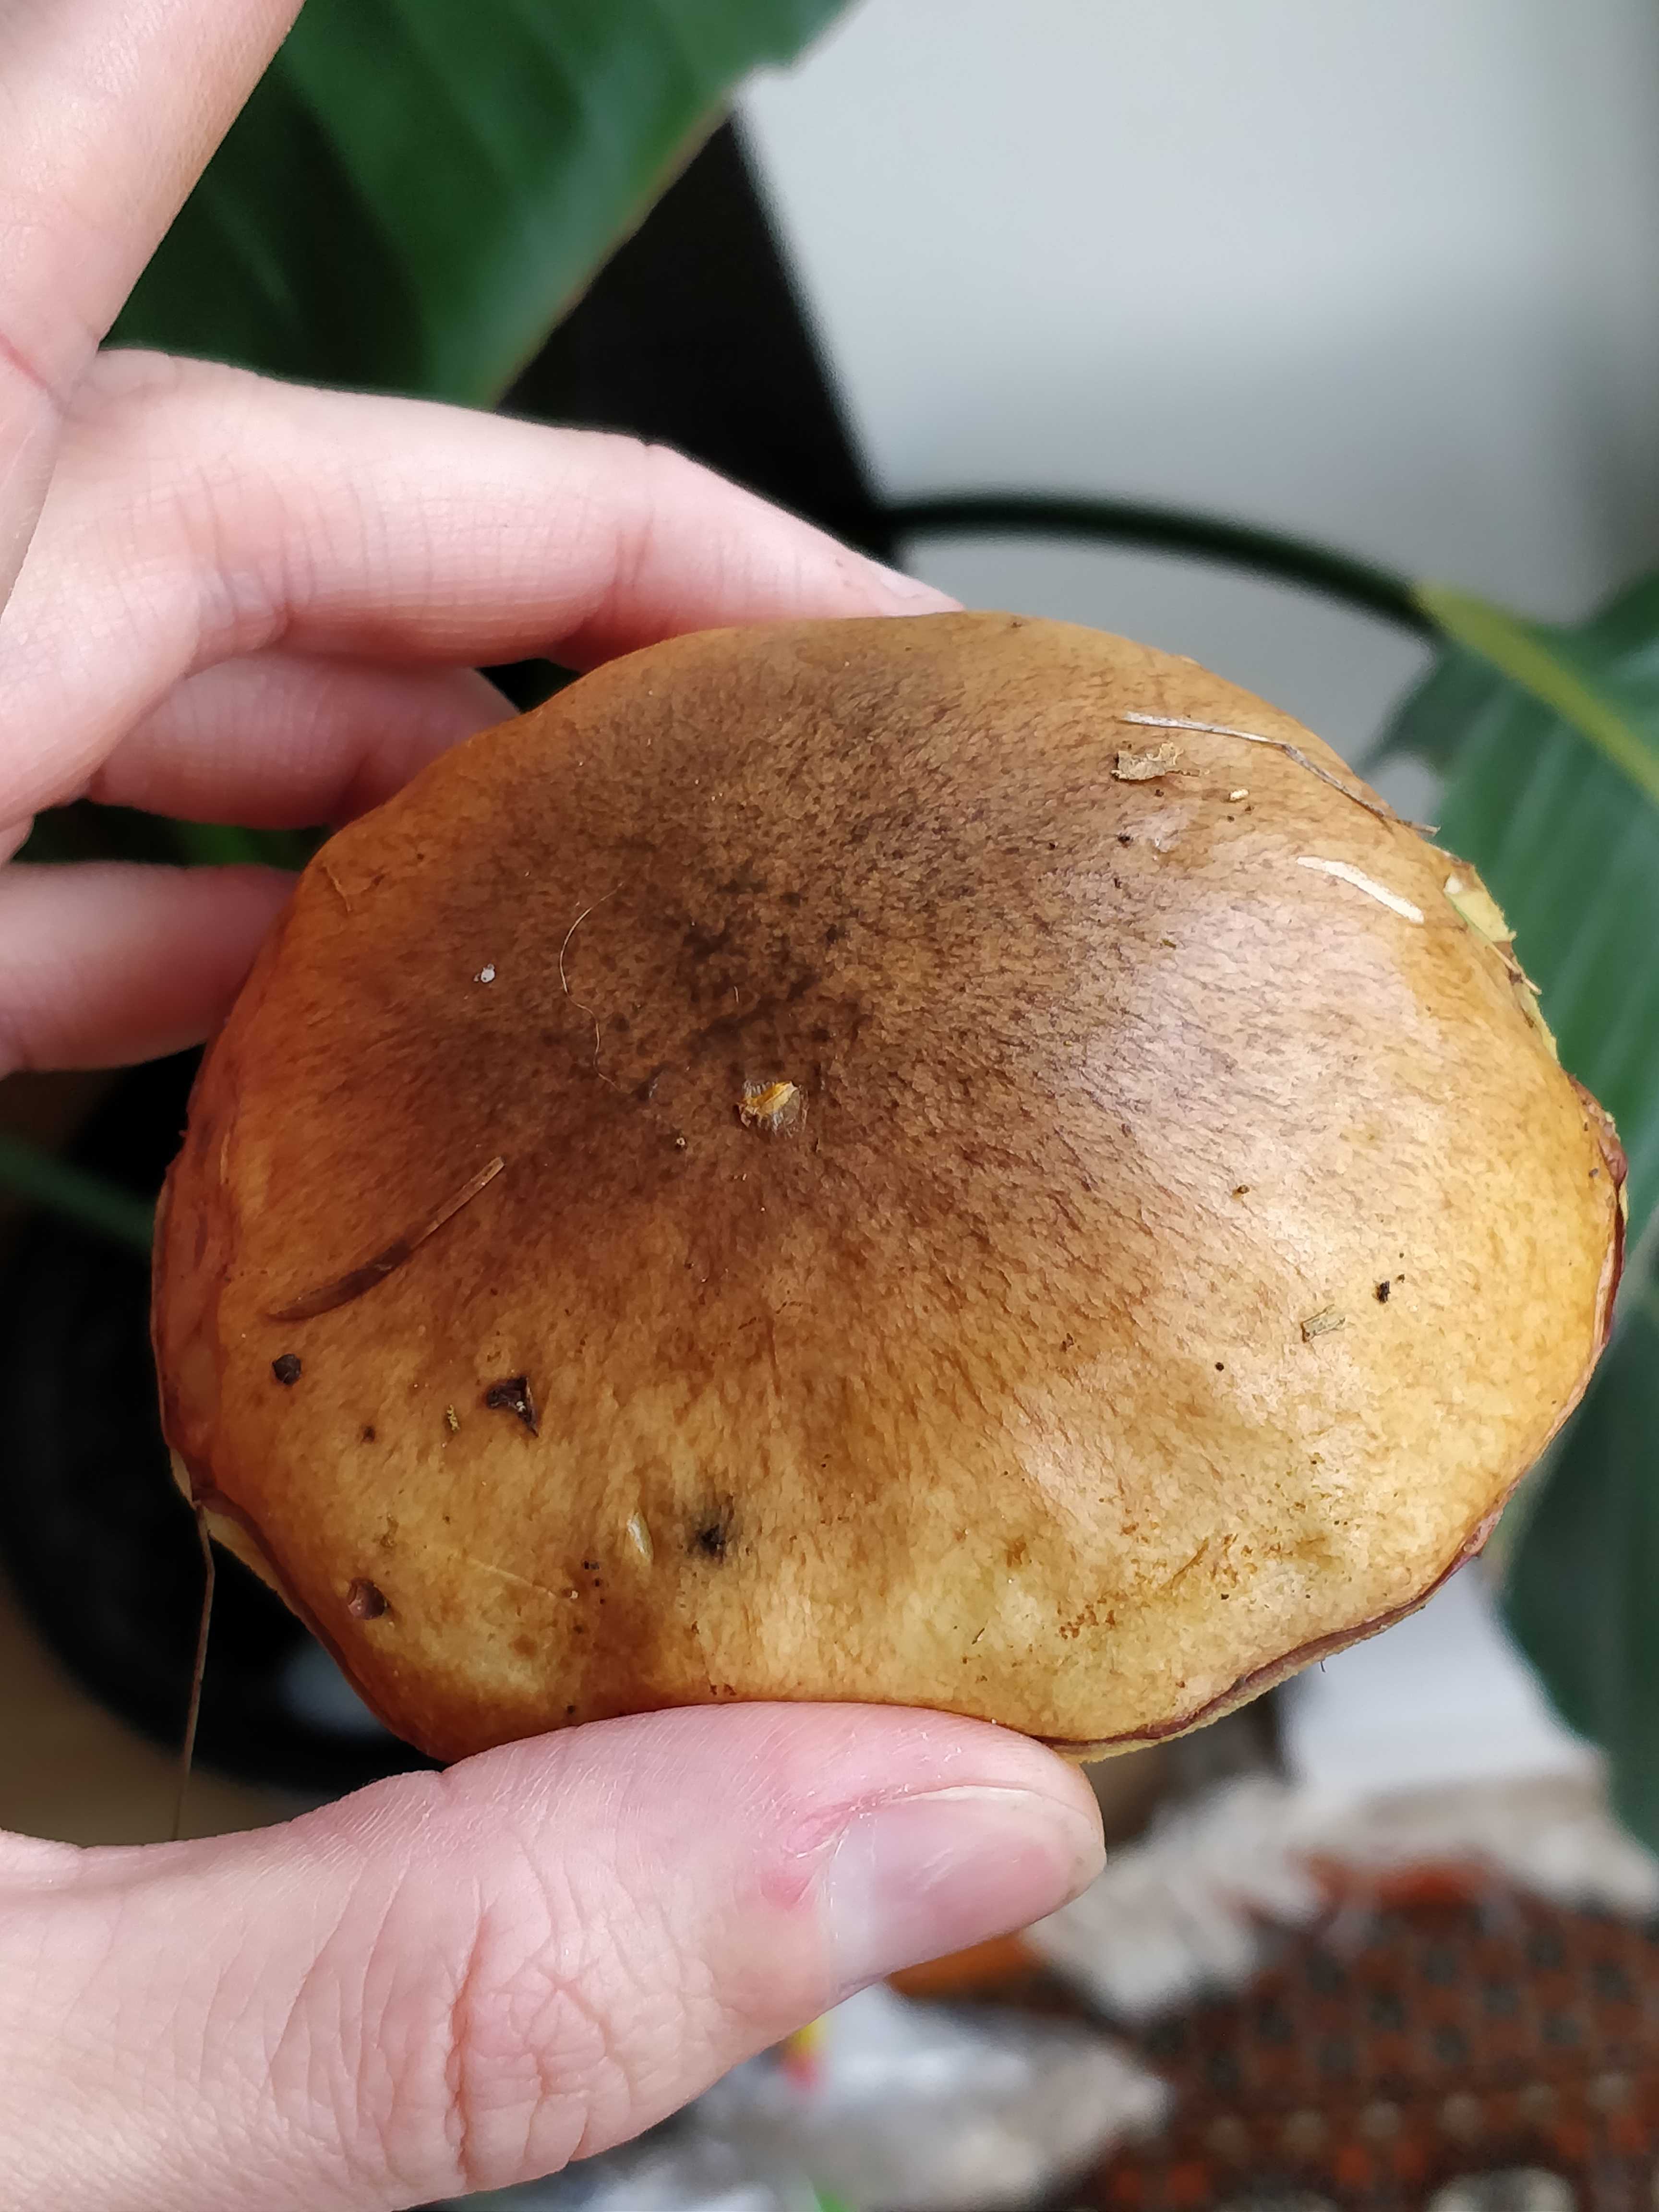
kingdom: Fungi
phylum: Basidiomycota
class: Agaricomycetes
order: Boletales
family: Suillaceae
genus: Suillus
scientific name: Suillus
